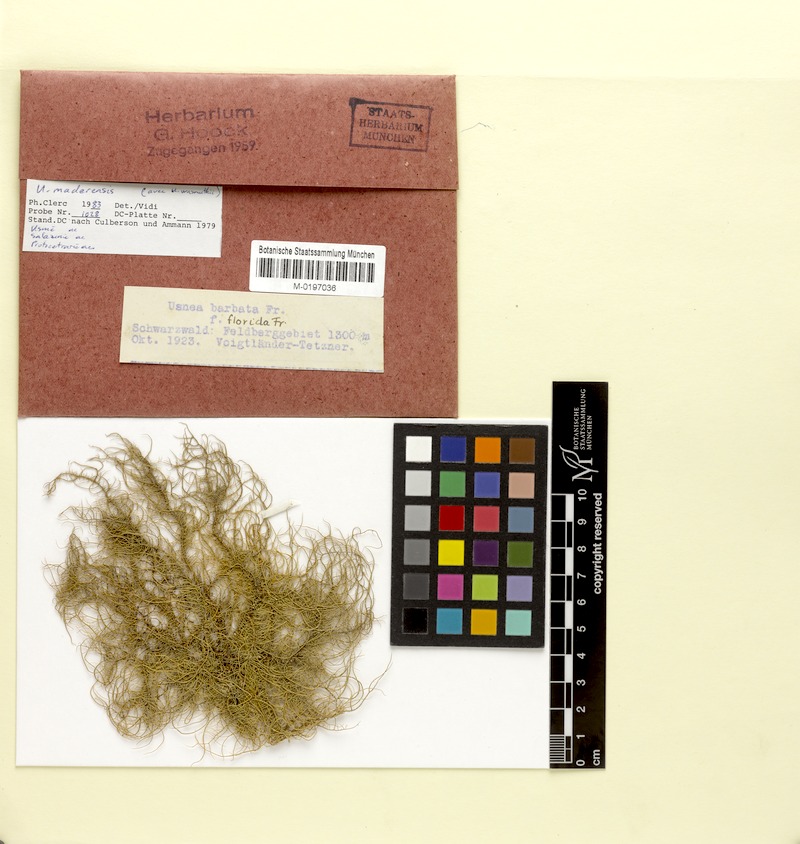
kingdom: Fungi
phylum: Ascomycota
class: Lecanoromycetes
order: Lecanorales
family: Parmeliaceae
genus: Usnea
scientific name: Usnea silesiaca
